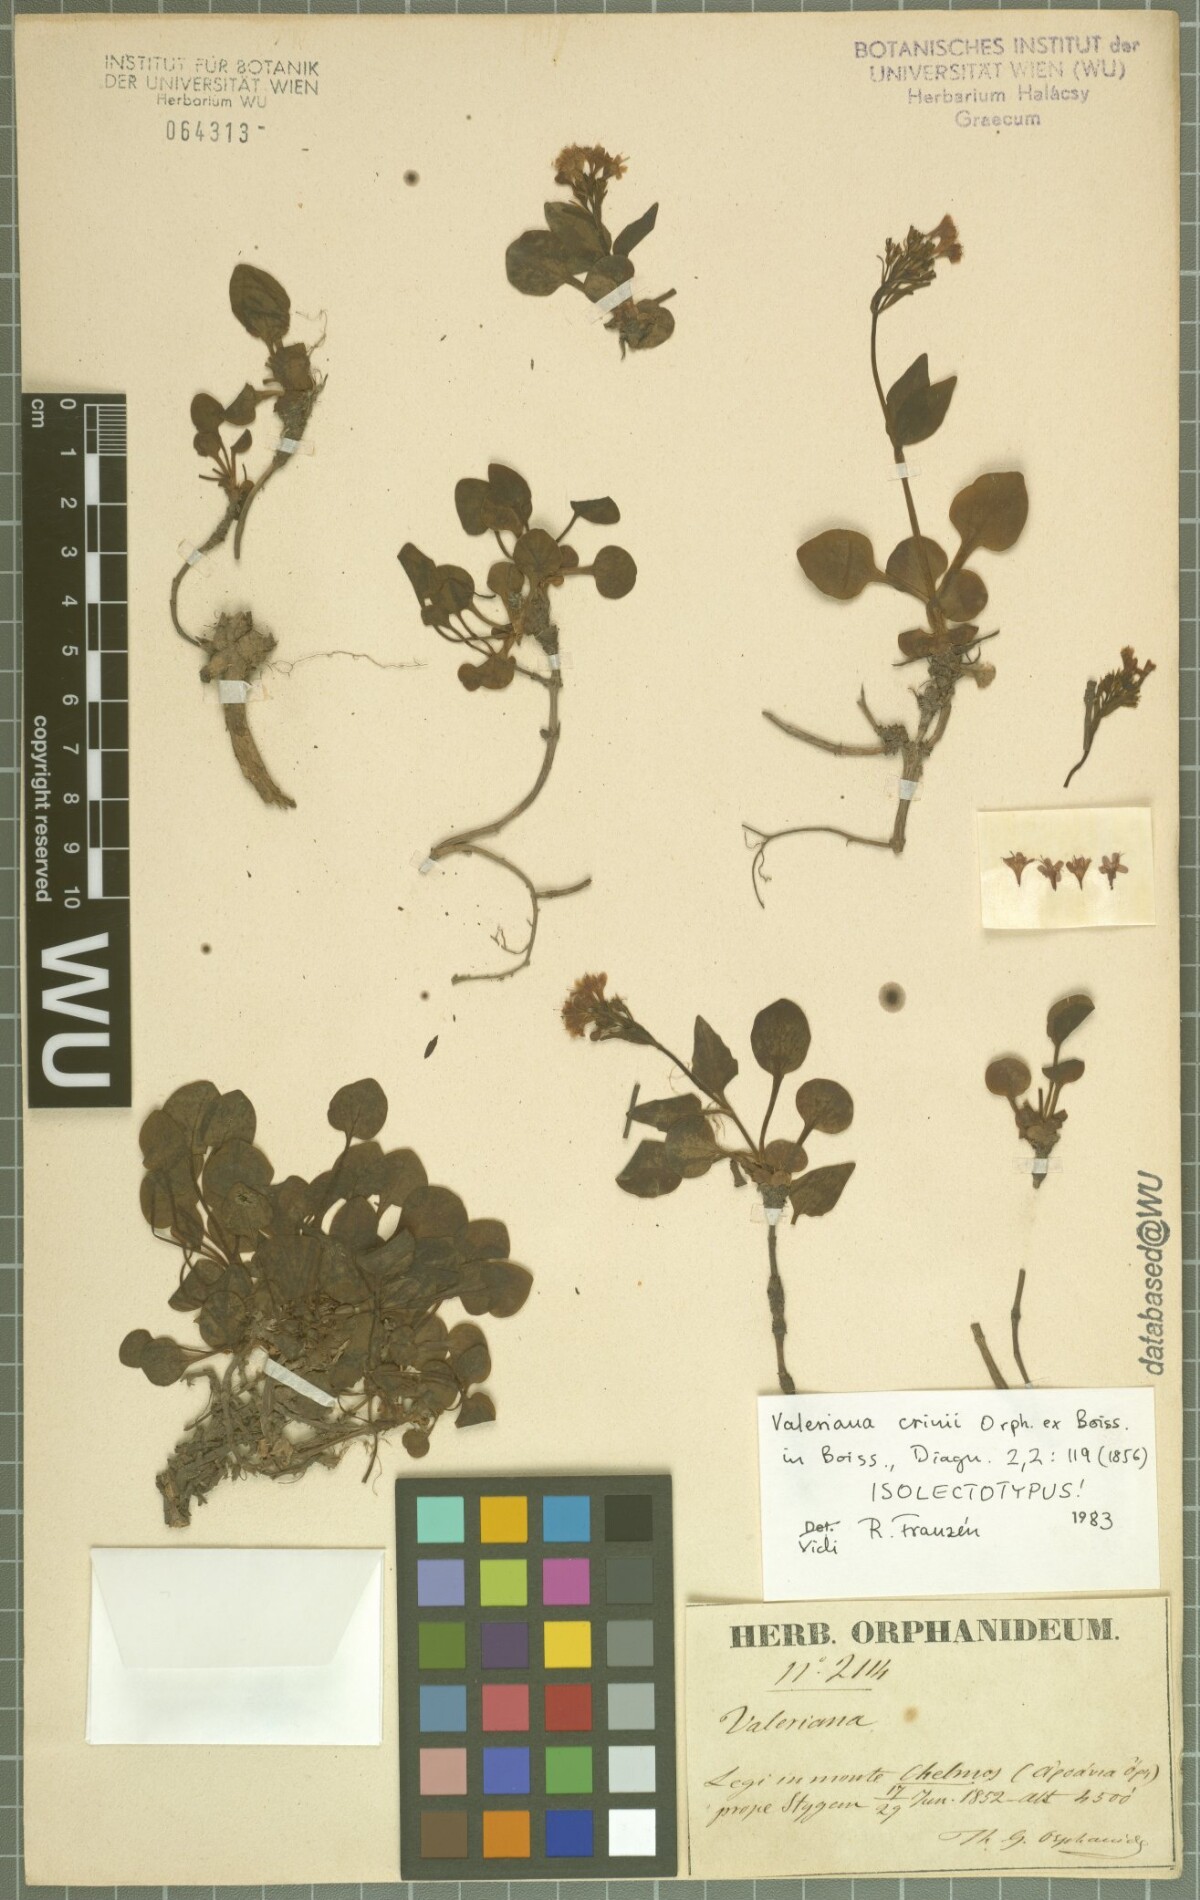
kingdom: Plantae
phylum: Tracheophyta
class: Magnoliopsida
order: Dipsacales
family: Caprifoliaceae
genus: Valeriana
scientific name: Valeriana crinii
